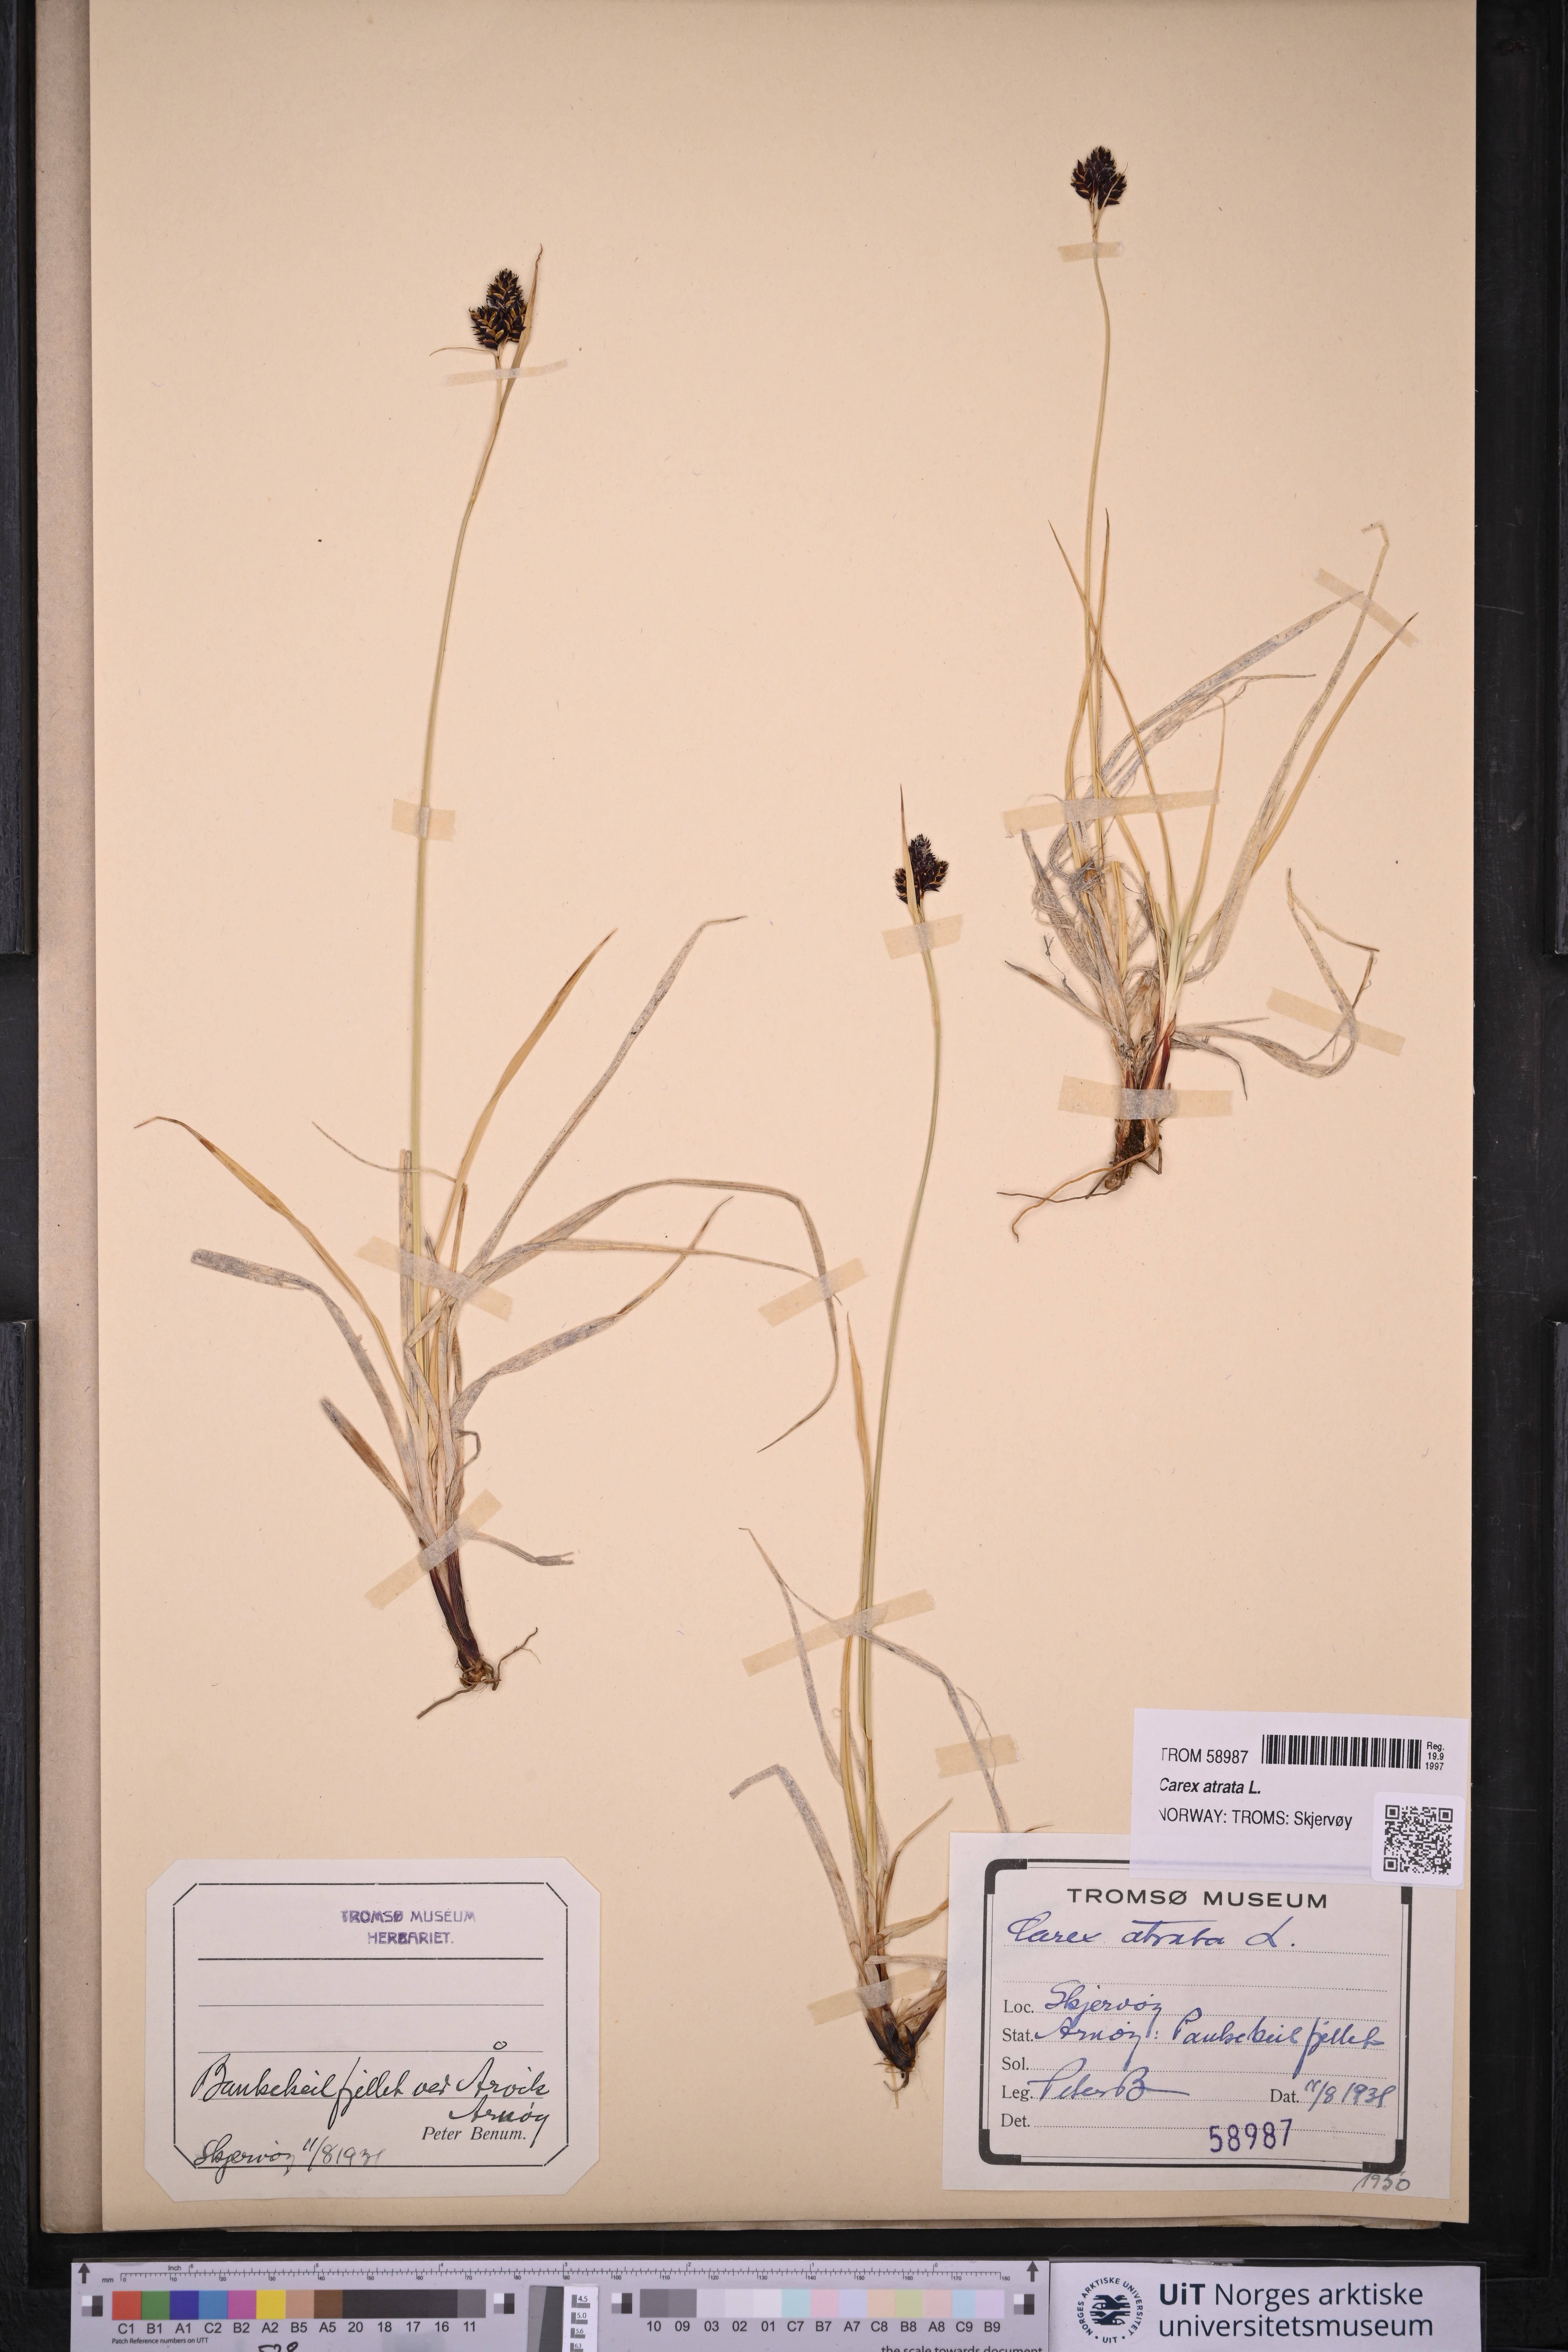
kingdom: Plantae
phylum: Tracheophyta
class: Liliopsida
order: Poales
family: Cyperaceae
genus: Carex
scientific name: Carex atrata
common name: Black alpine sedge
